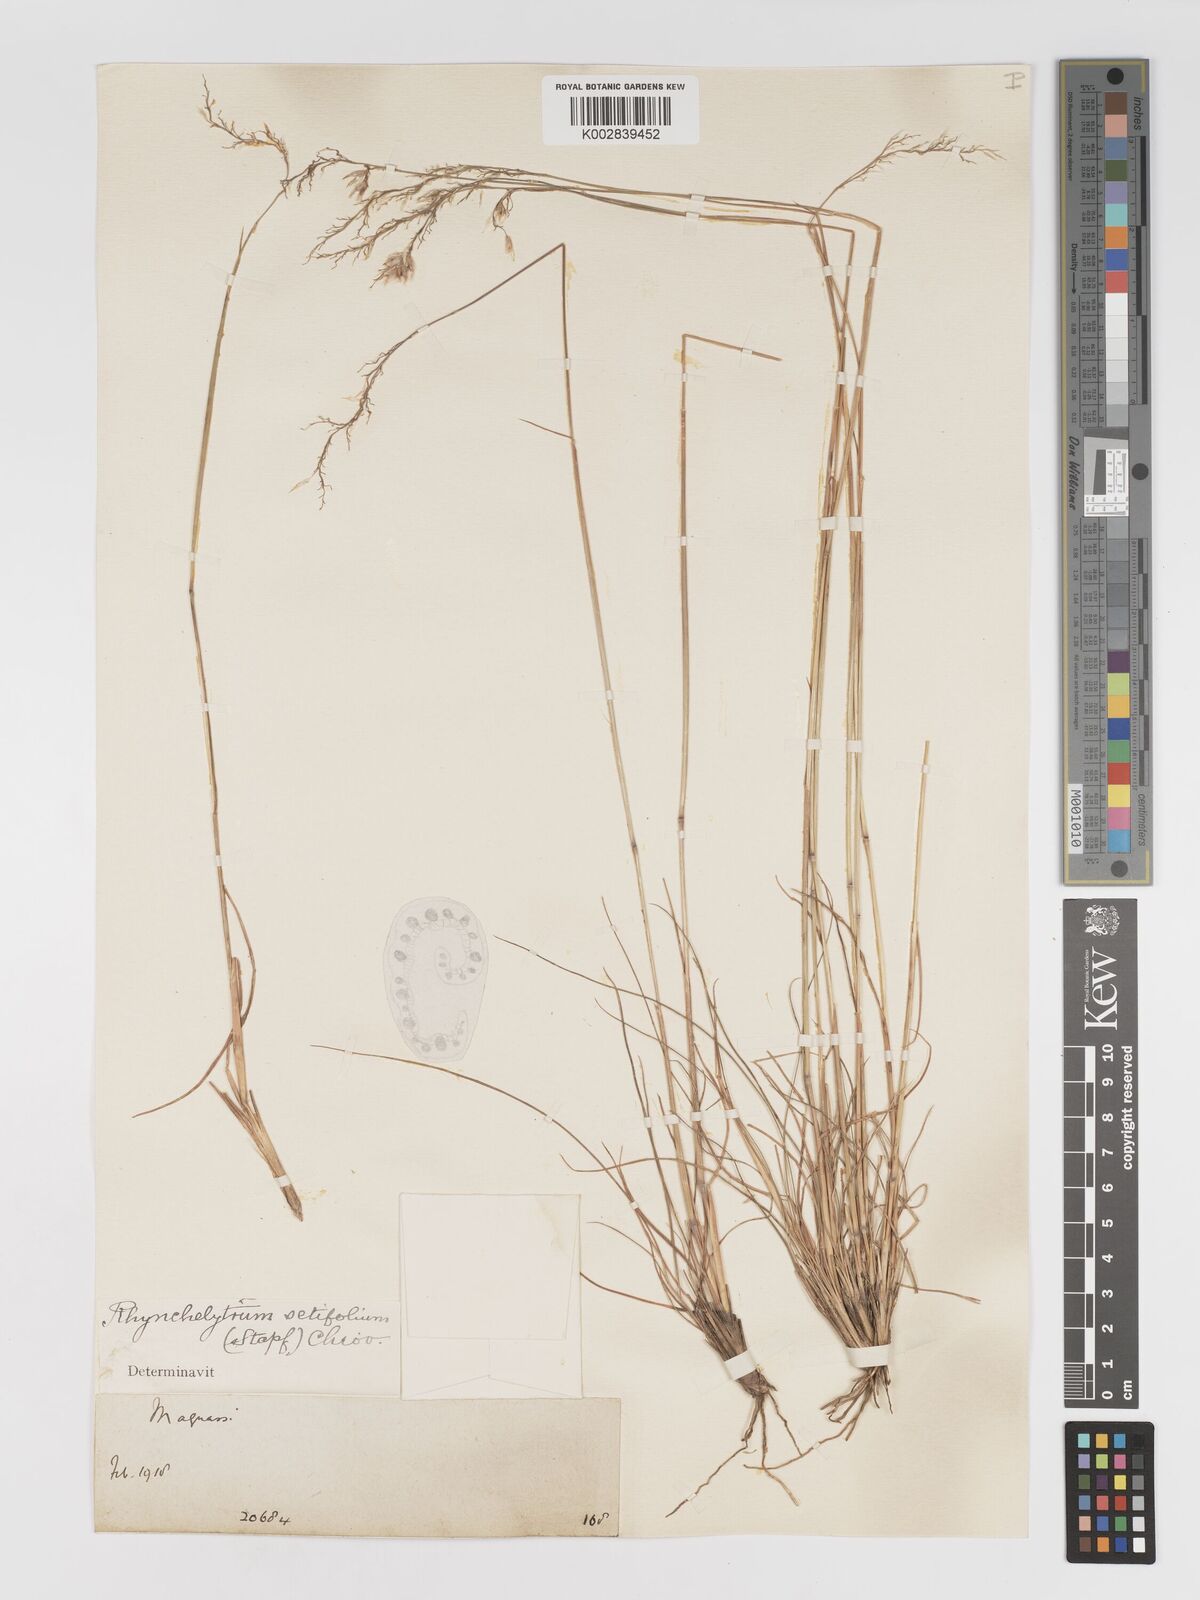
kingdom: Plantae
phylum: Tracheophyta
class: Liliopsida
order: Poales
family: Poaceae
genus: Melinis
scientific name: Melinis nerviglumis
